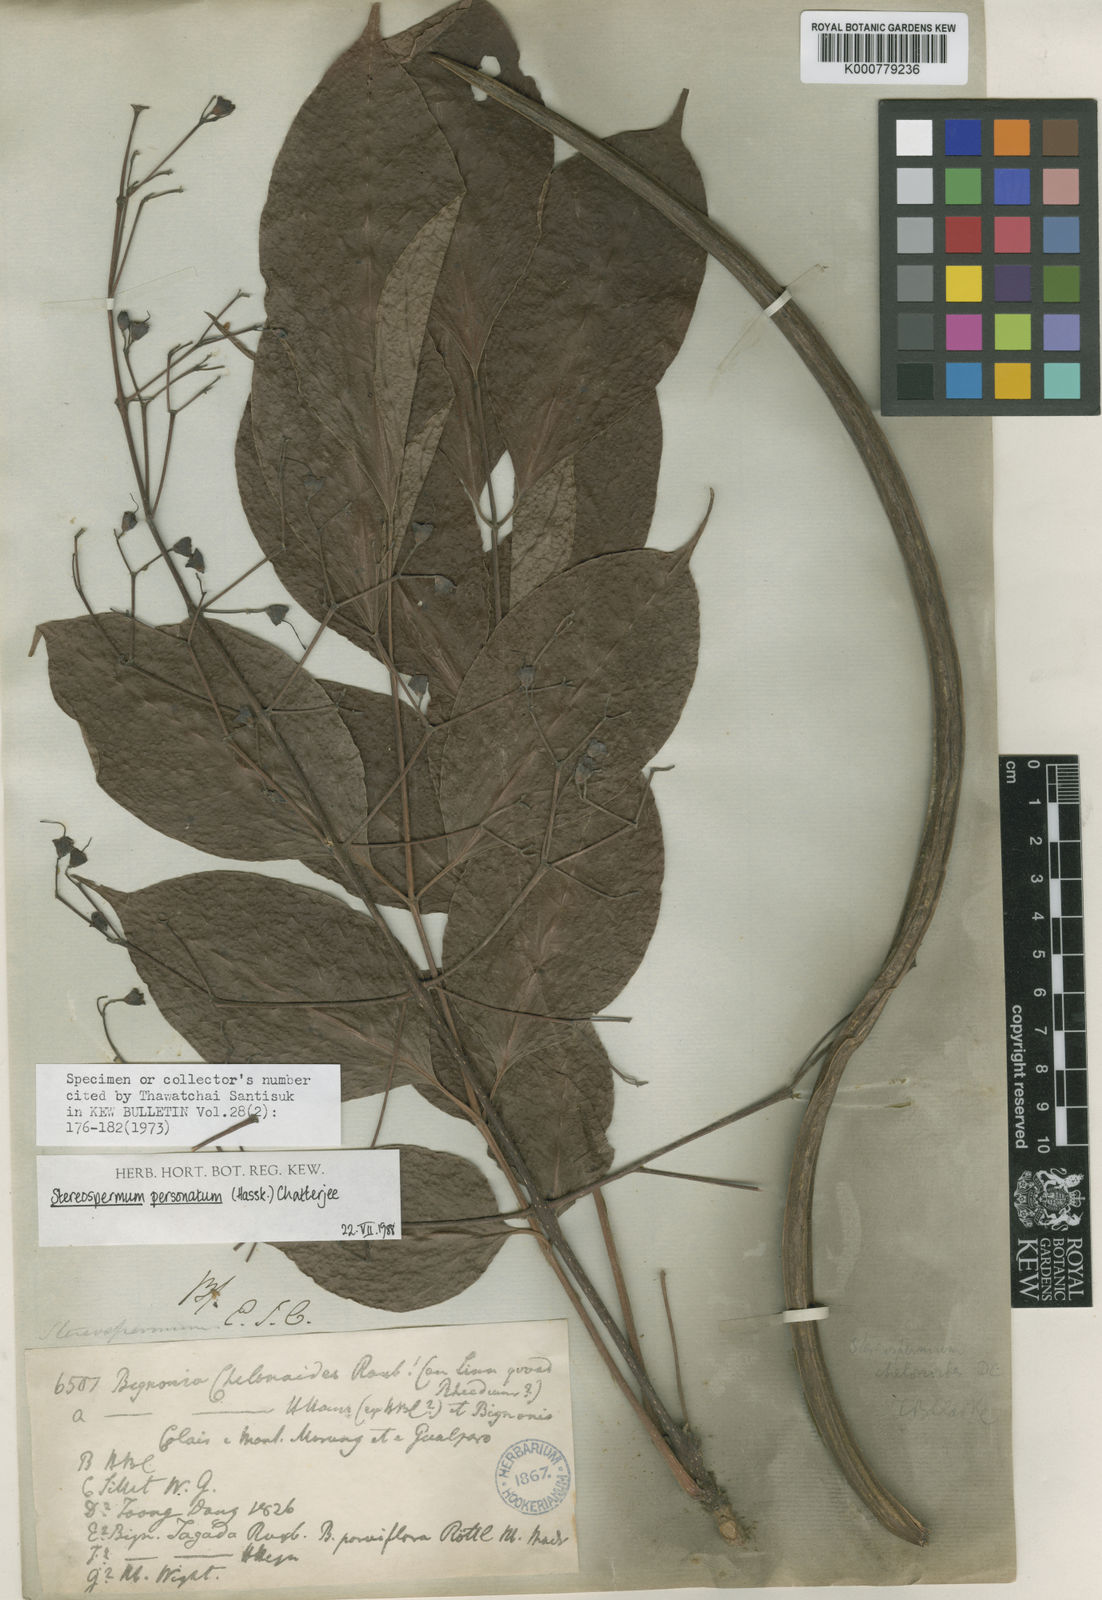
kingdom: Plantae
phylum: Tracheophyta
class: Magnoliopsida
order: Lamiales
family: Bignoniaceae
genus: Stereospermum
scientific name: Stereospermum colais
